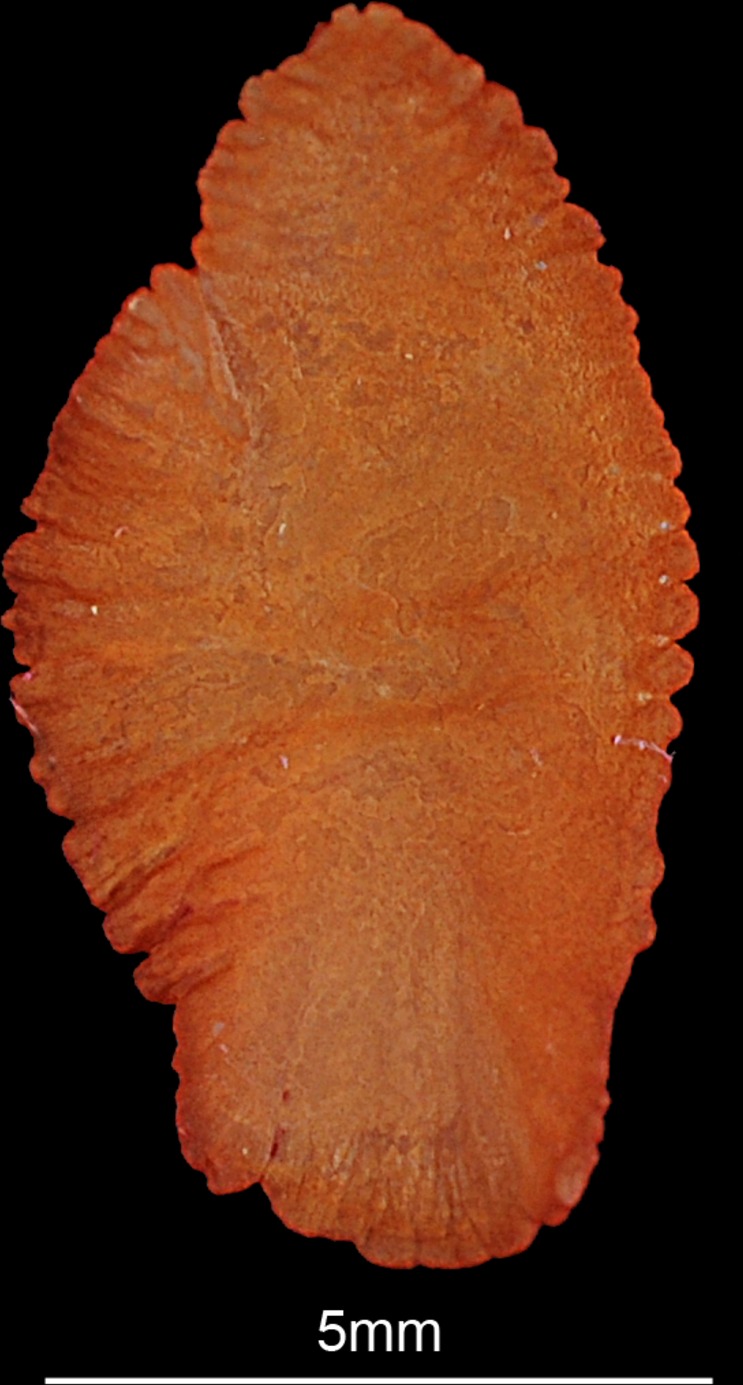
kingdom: Animalia
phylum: Chordata
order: Perciformes
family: Haemulidae
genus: Diagramma
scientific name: Diagramma pictum
